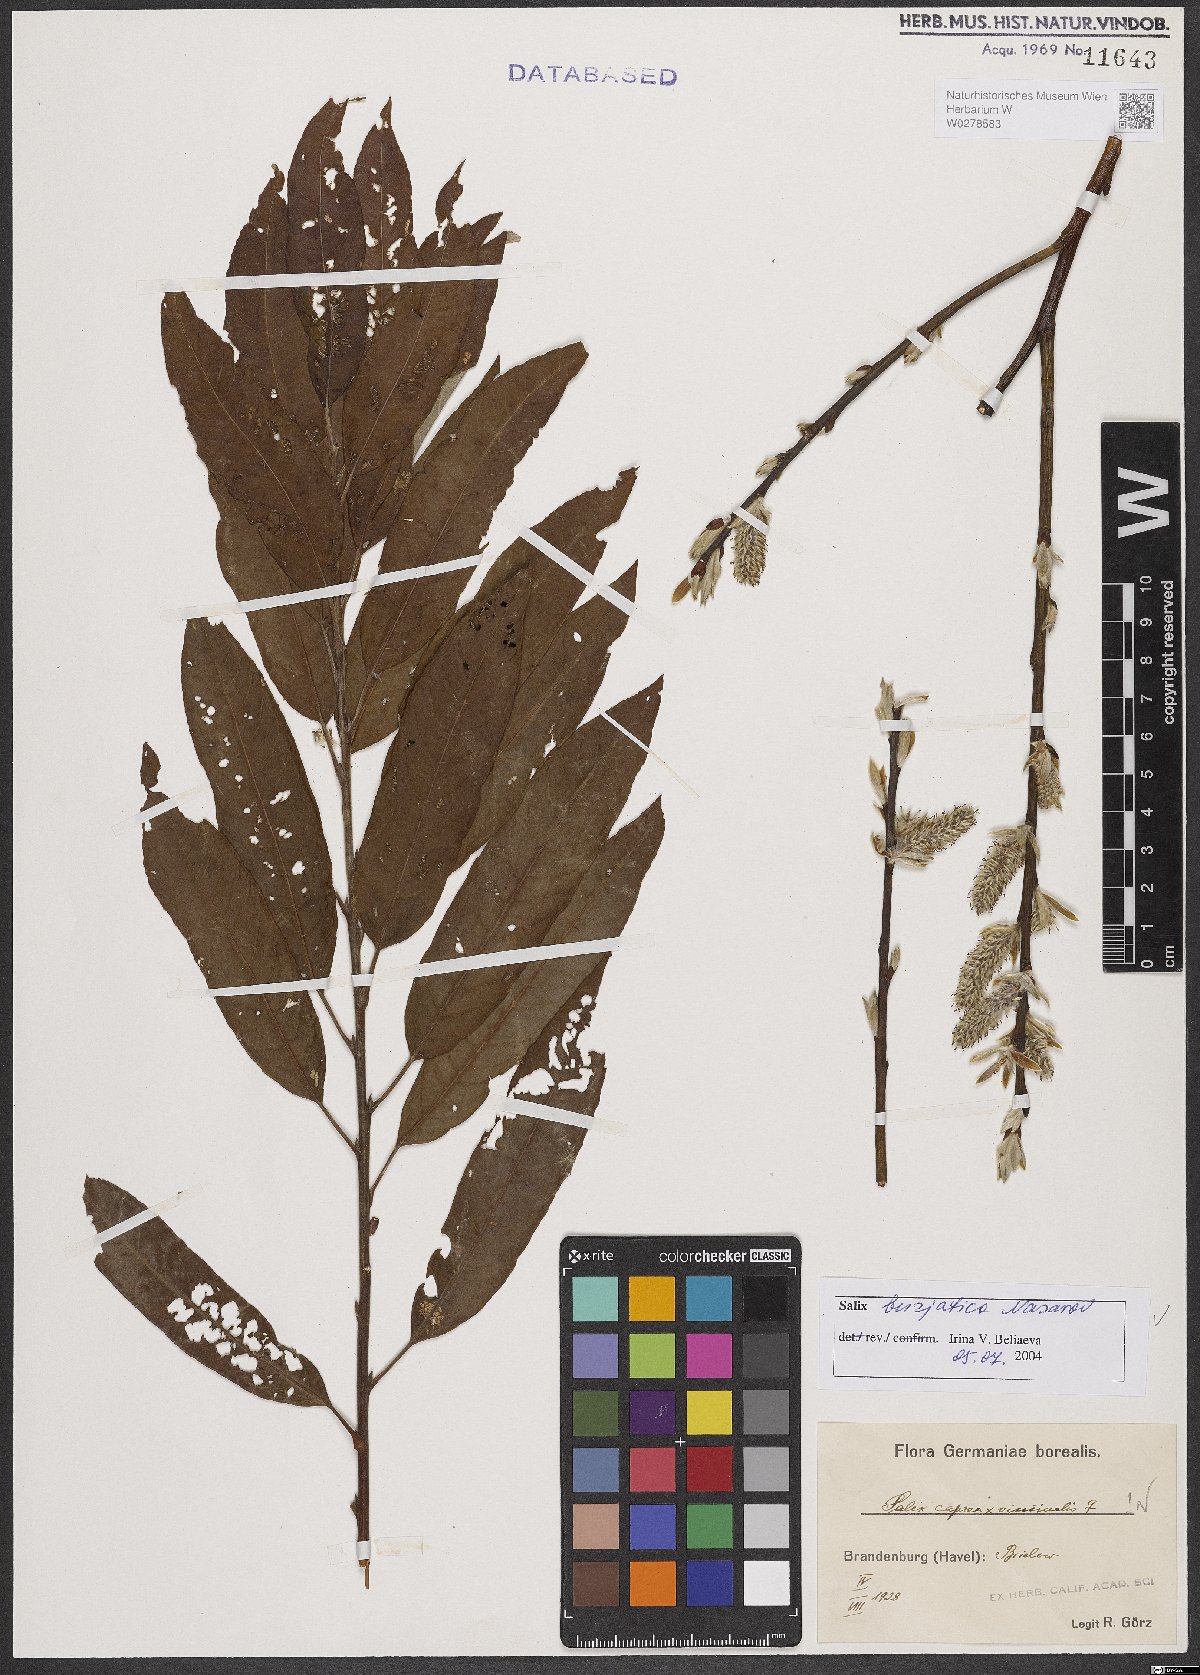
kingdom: Plantae
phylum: Tracheophyta
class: Magnoliopsida
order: Malpighiales
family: Salicaceae
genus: Salix
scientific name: Salix gmelinii
